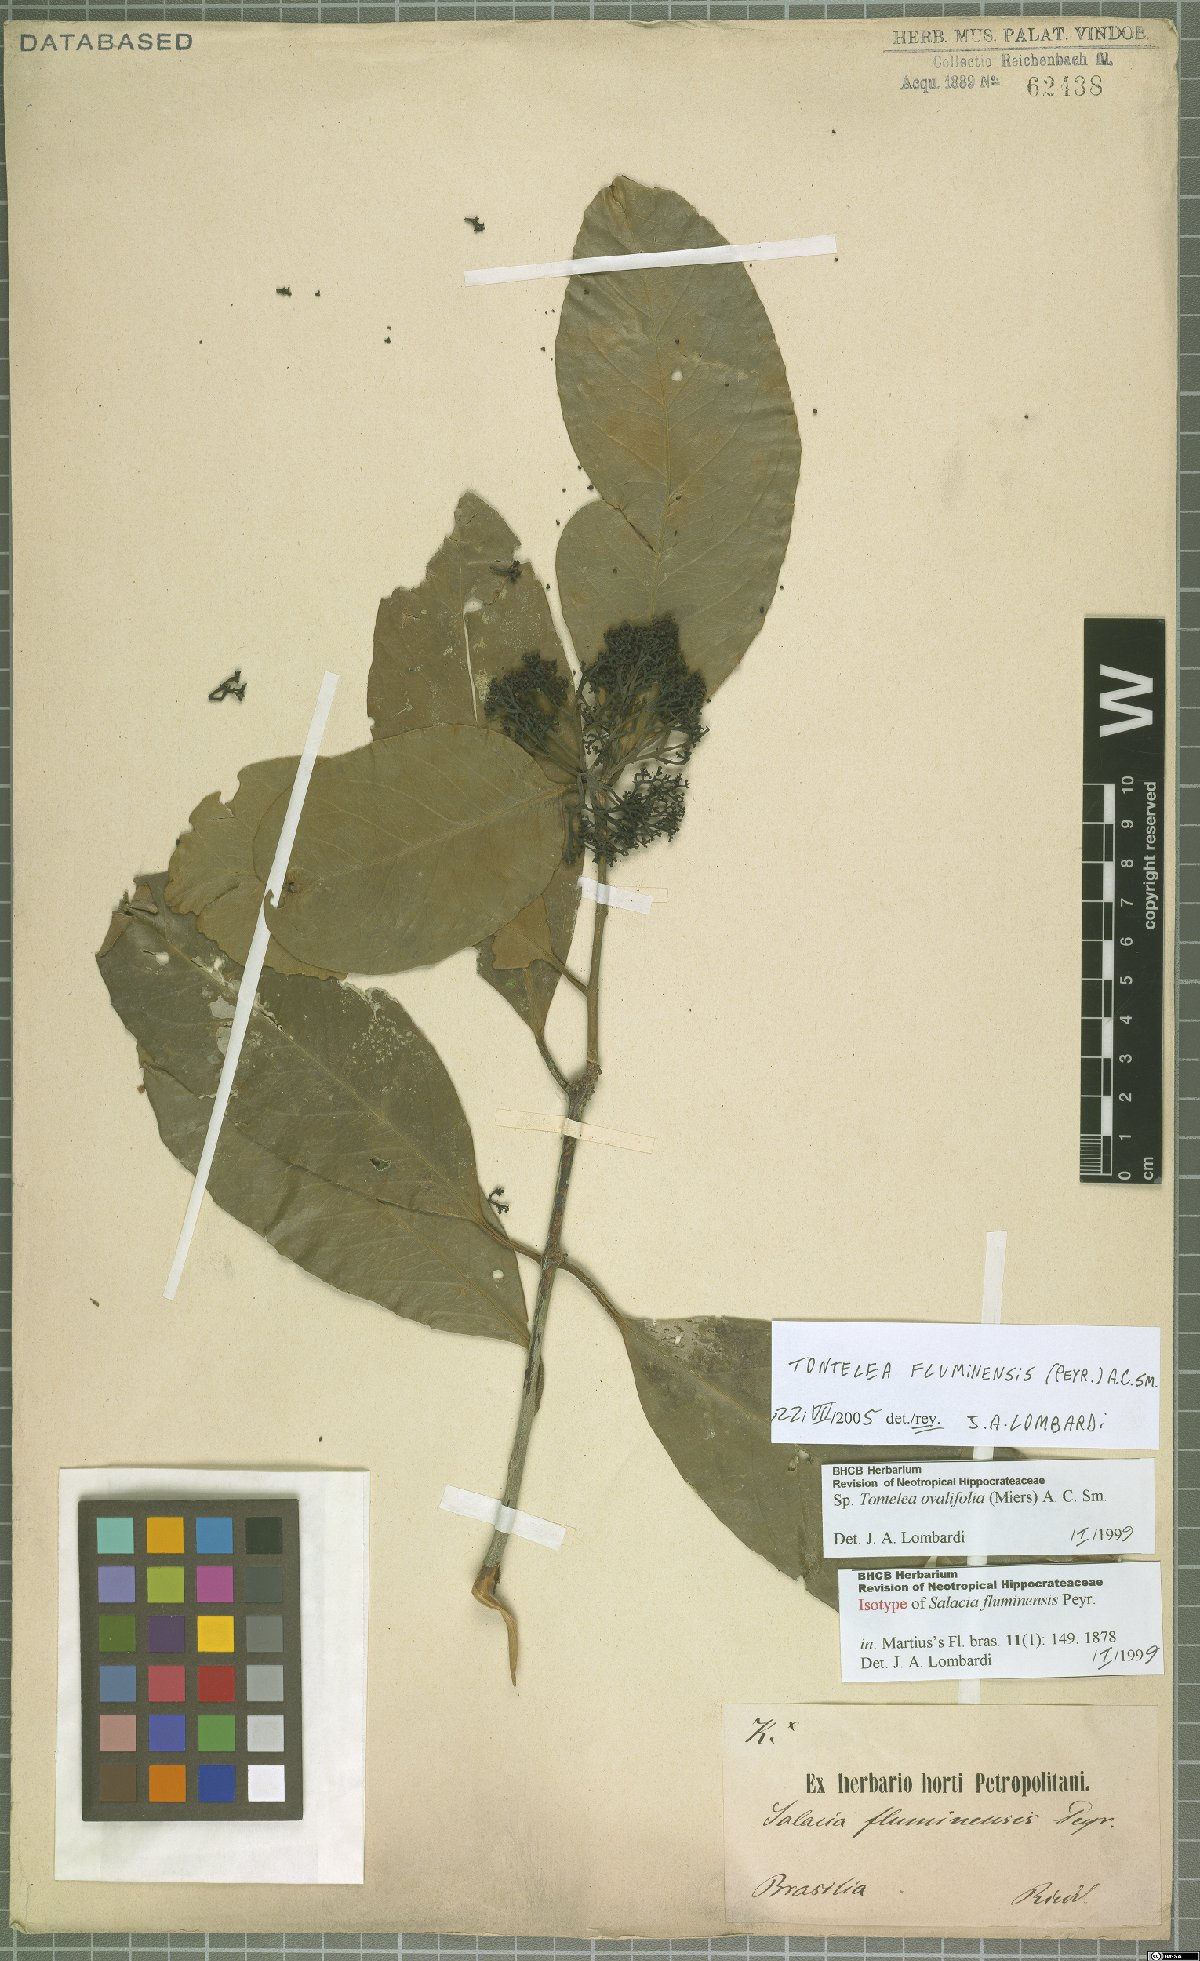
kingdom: Plantae
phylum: Tracheophyta
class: Magnoliopsida
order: Celastrales
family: Celastraceae
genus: Tontelea
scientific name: Tontelea passiflora
